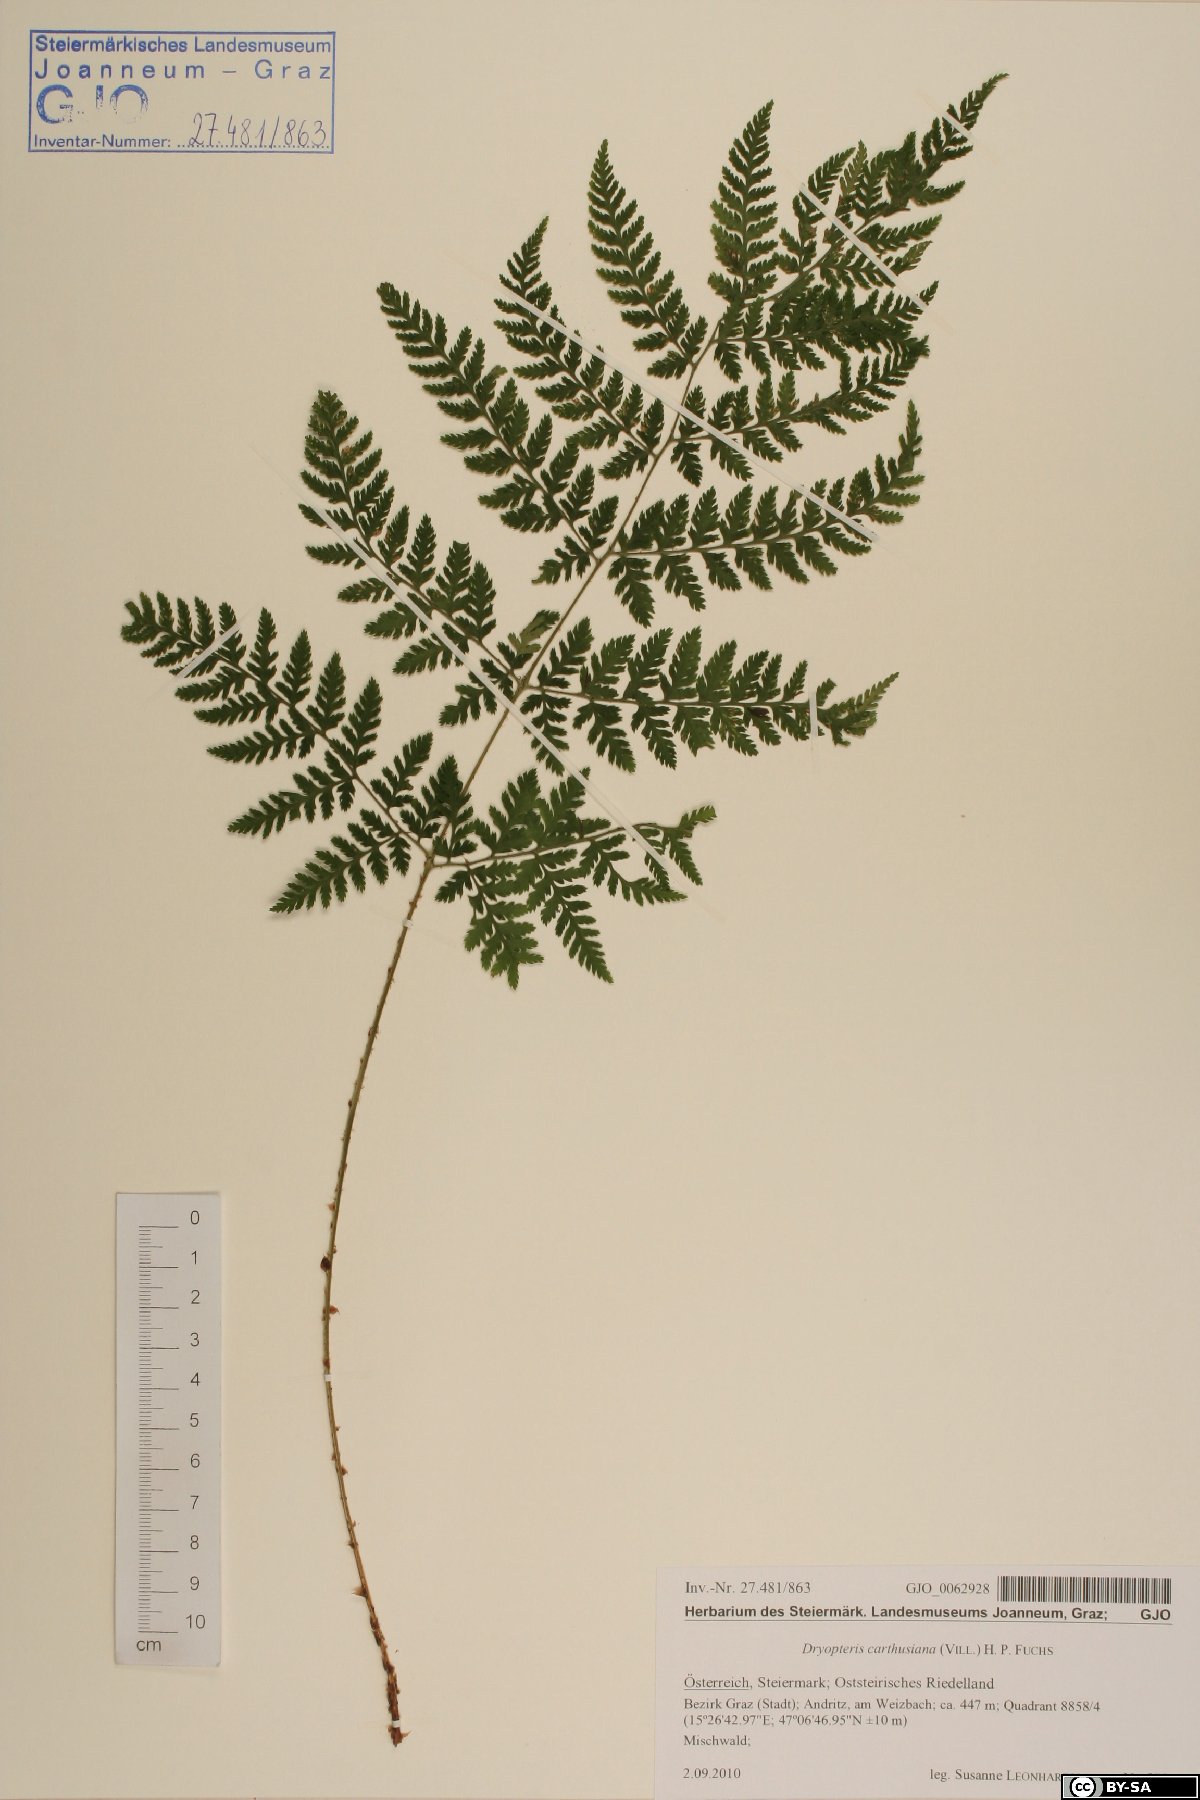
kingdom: Plantae
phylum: Tracheophyta
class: Polypodiopsida
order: Polypodiales
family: Dryopteridaceae
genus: Dryopteris
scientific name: Dryopteris carthusiana
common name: Narrow buckler-fern
